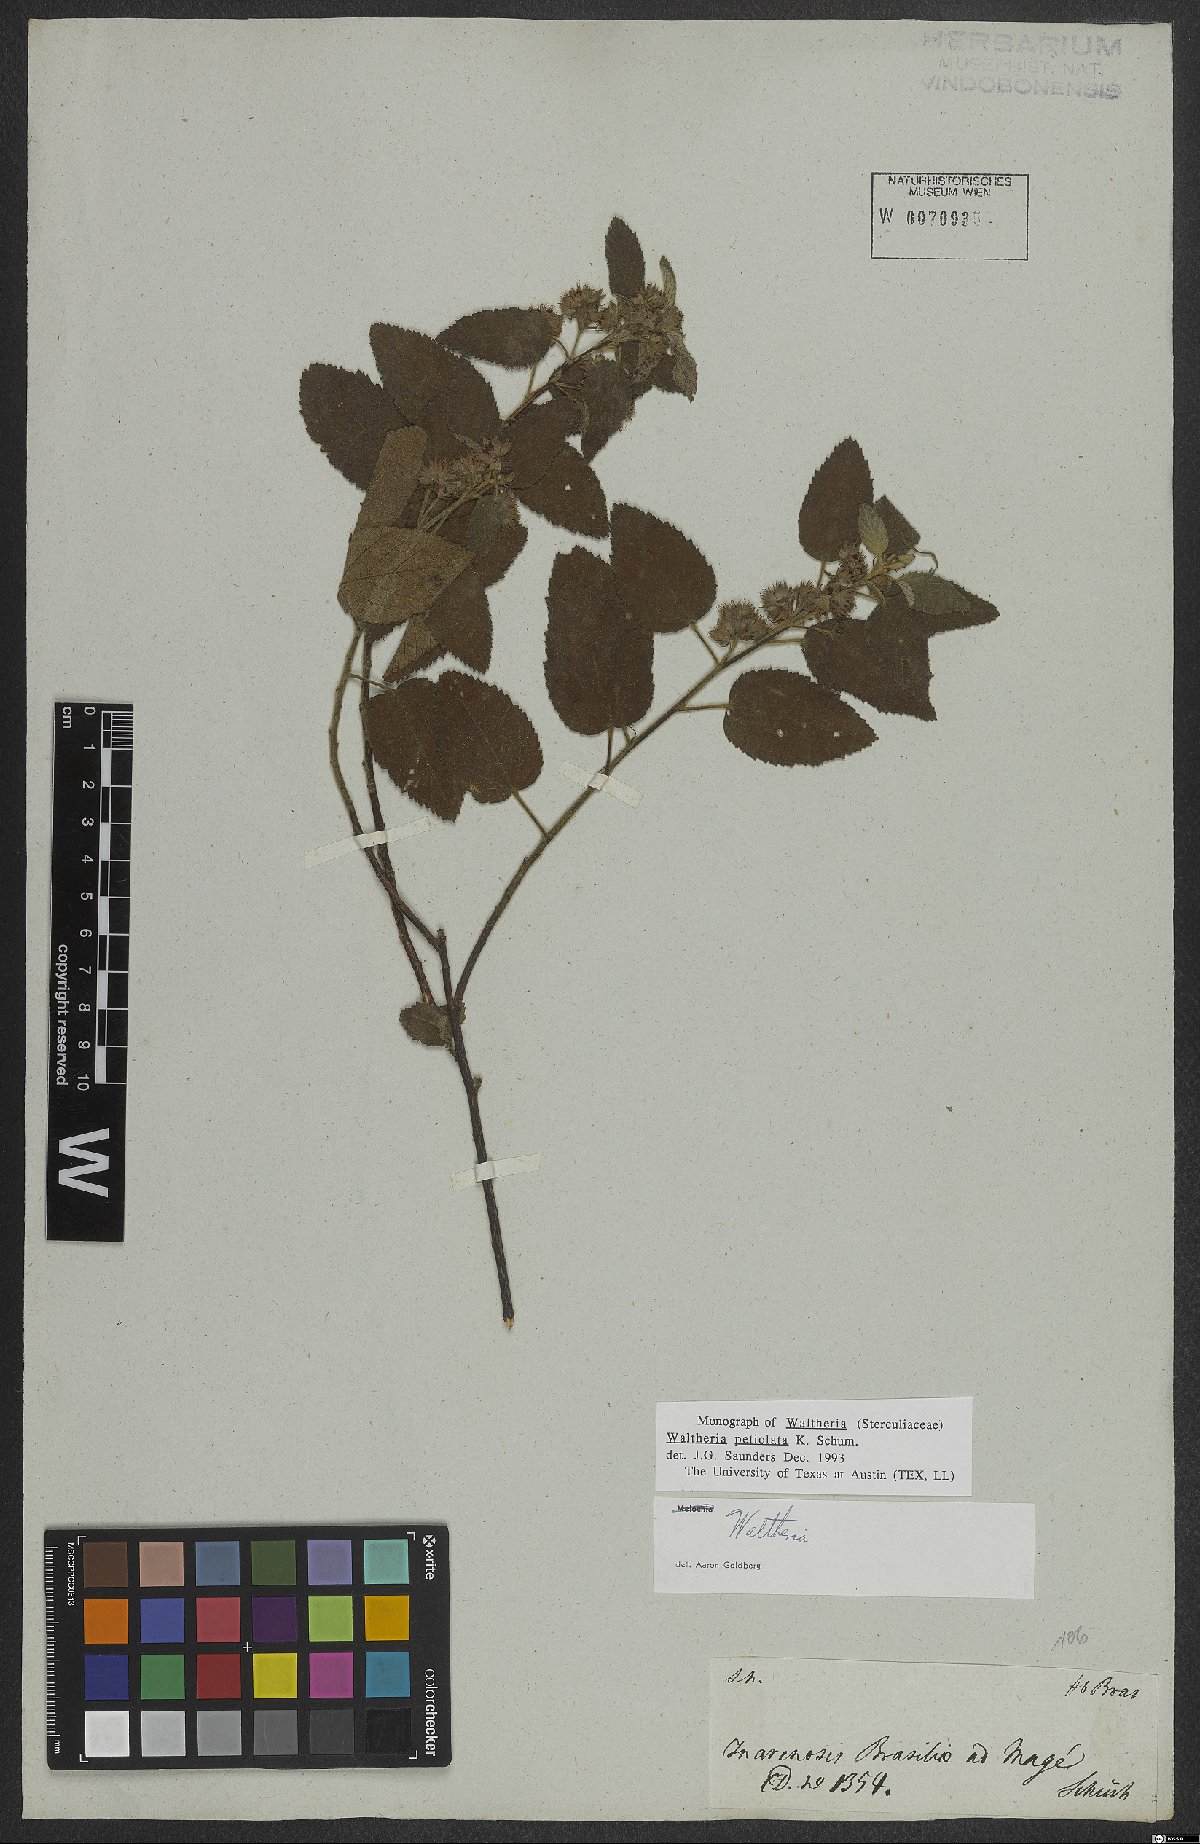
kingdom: Plantae
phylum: Tracheophyta
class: Magnoliopsida
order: Malvales
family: Malvaceae
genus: Waltheria
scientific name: Waltheria petiolata
